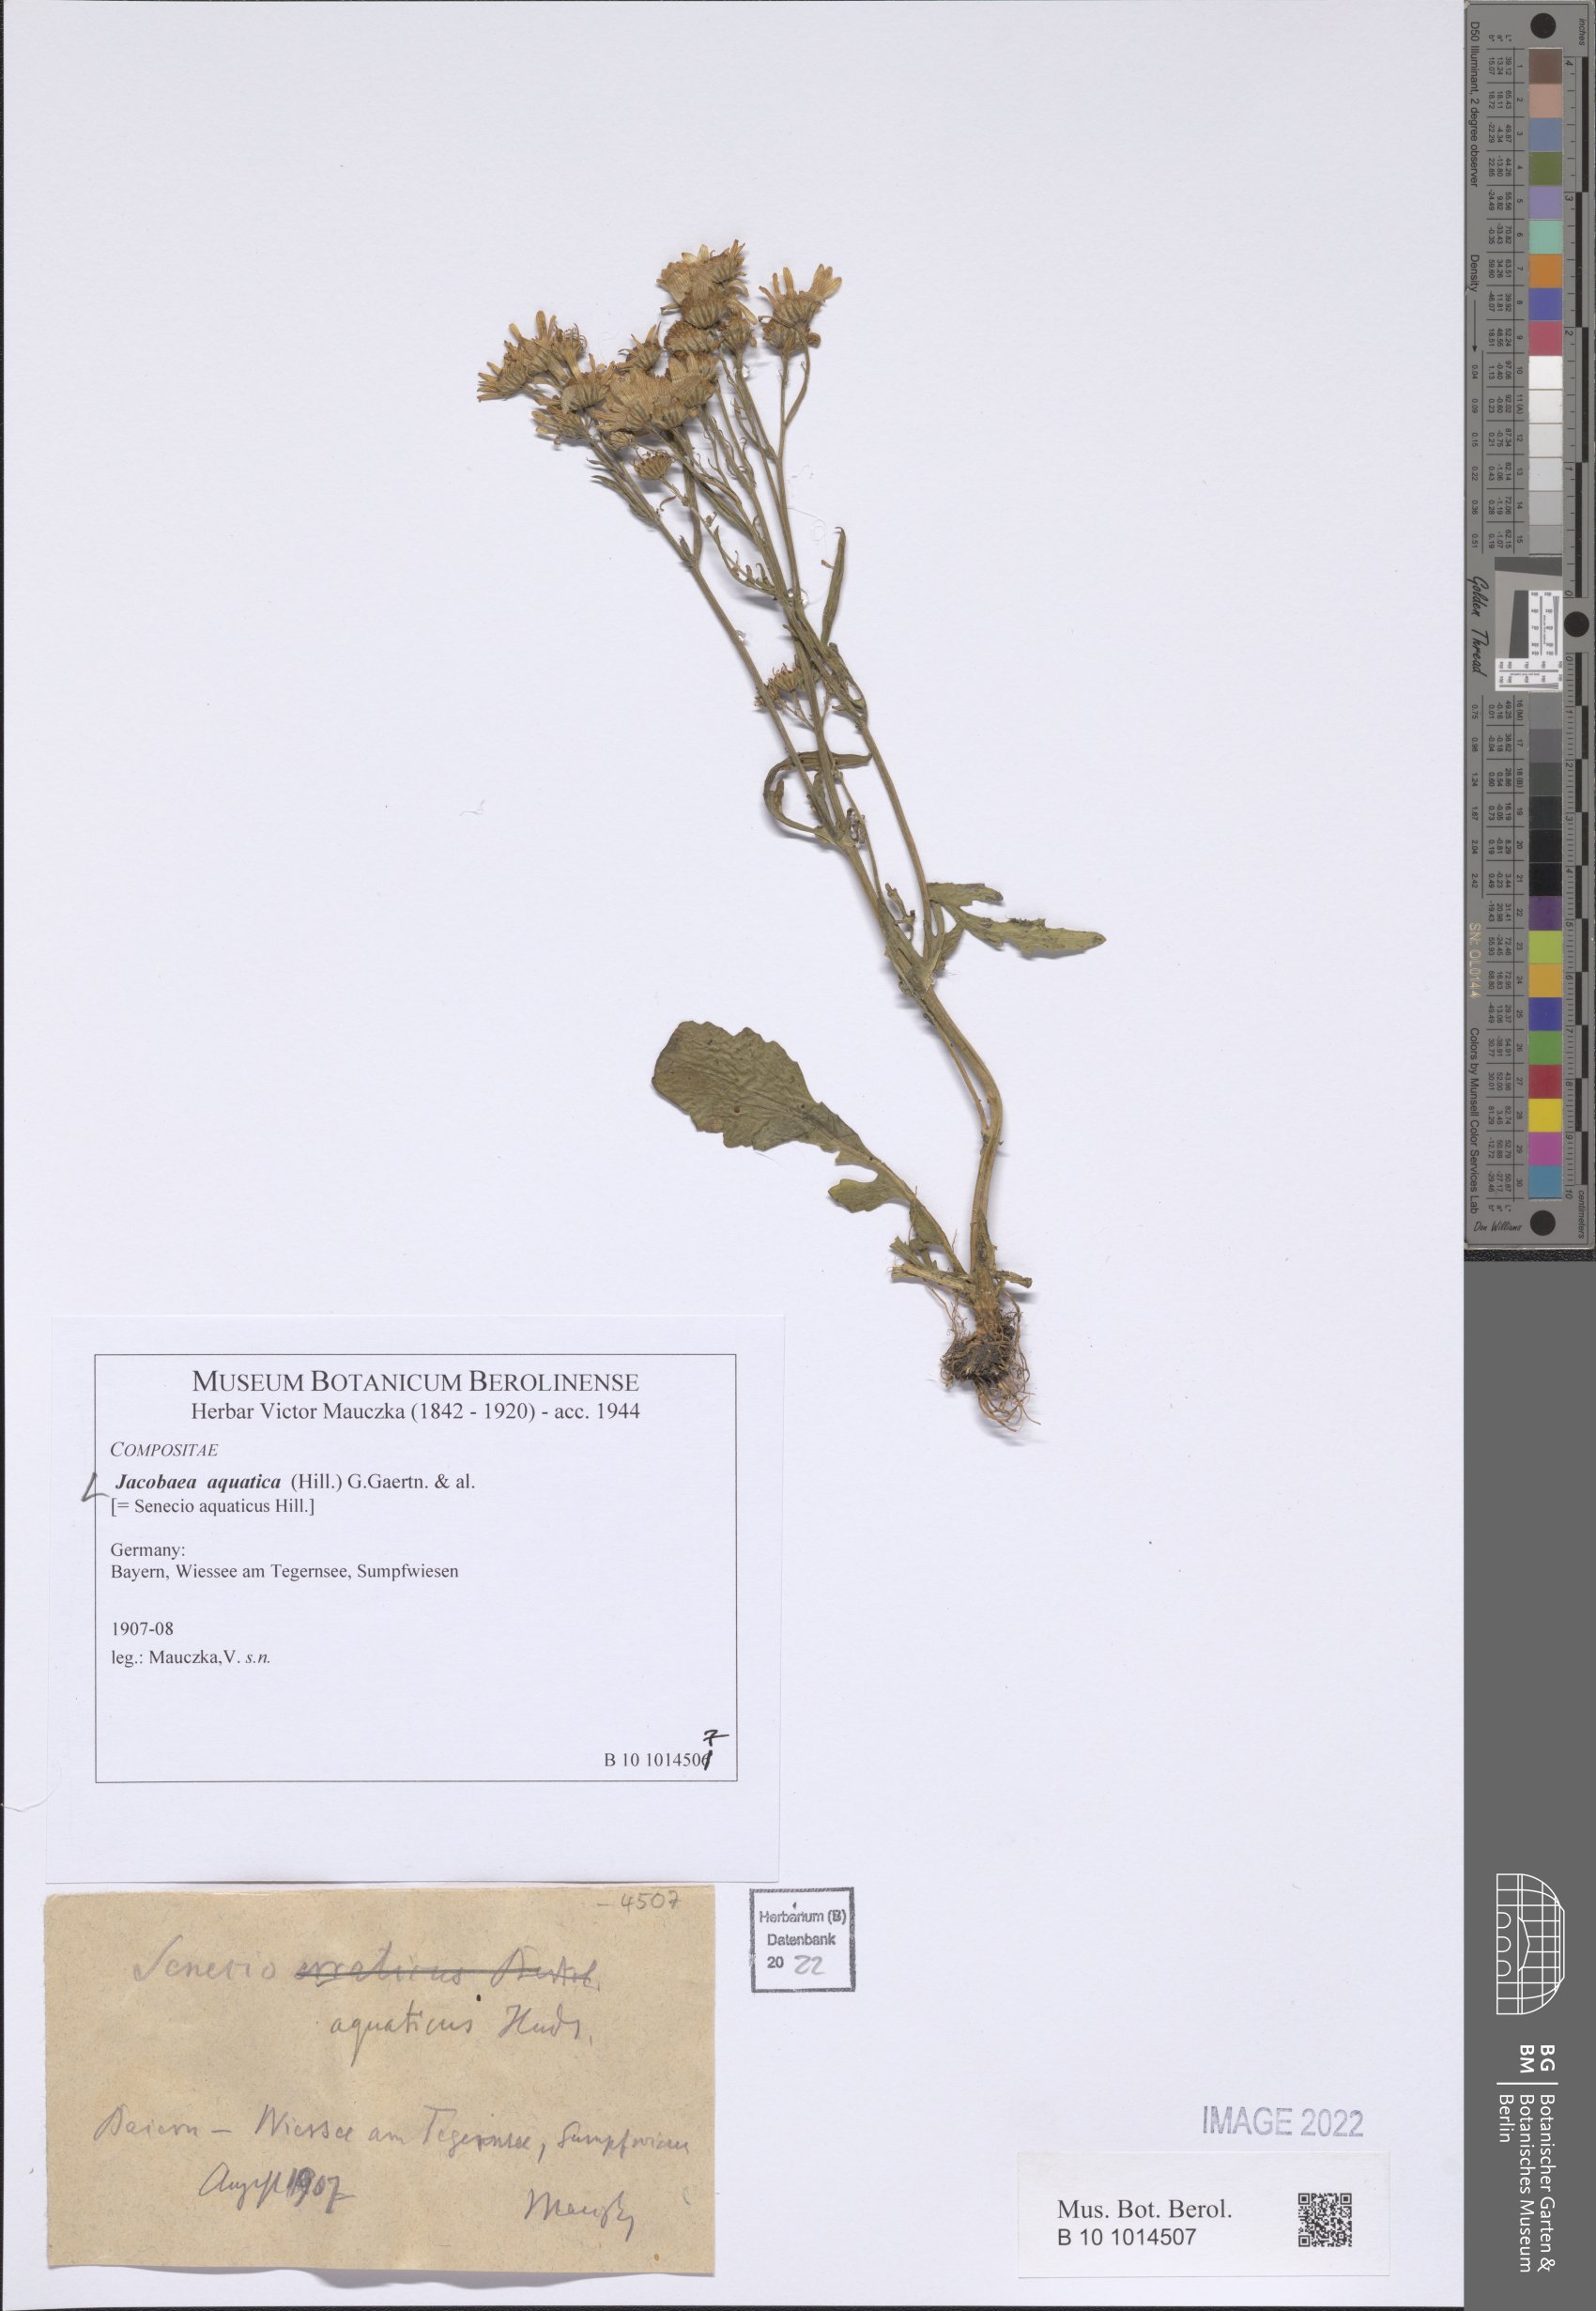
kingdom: Plantae
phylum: Tracheophyta
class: Magnoliopsida
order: Asterales
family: Asteraceae
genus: Jacobaea
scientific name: Jacobaea aquatica
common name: Water ragwort
